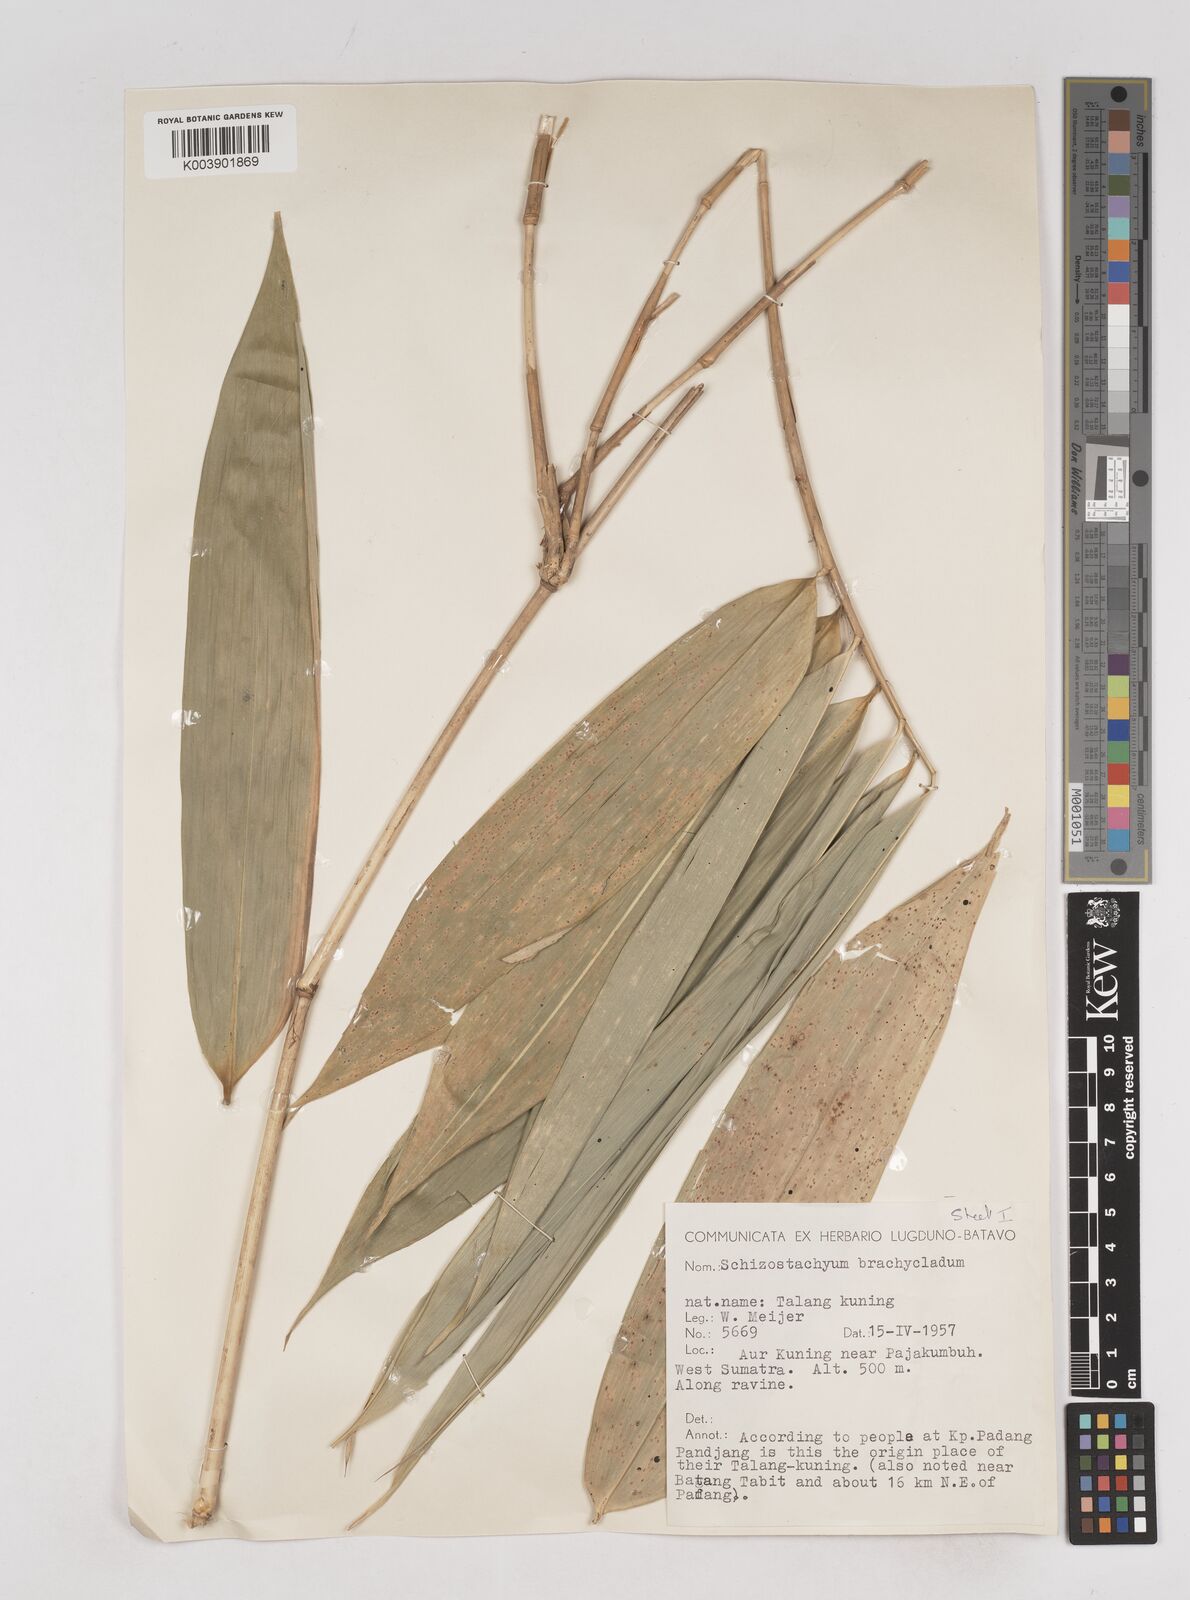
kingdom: Plantae
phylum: Tracheophyta
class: Liliopsida
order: Poales
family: Poaceae
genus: Schizostachyum
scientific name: Schizostachyum brachycladum
